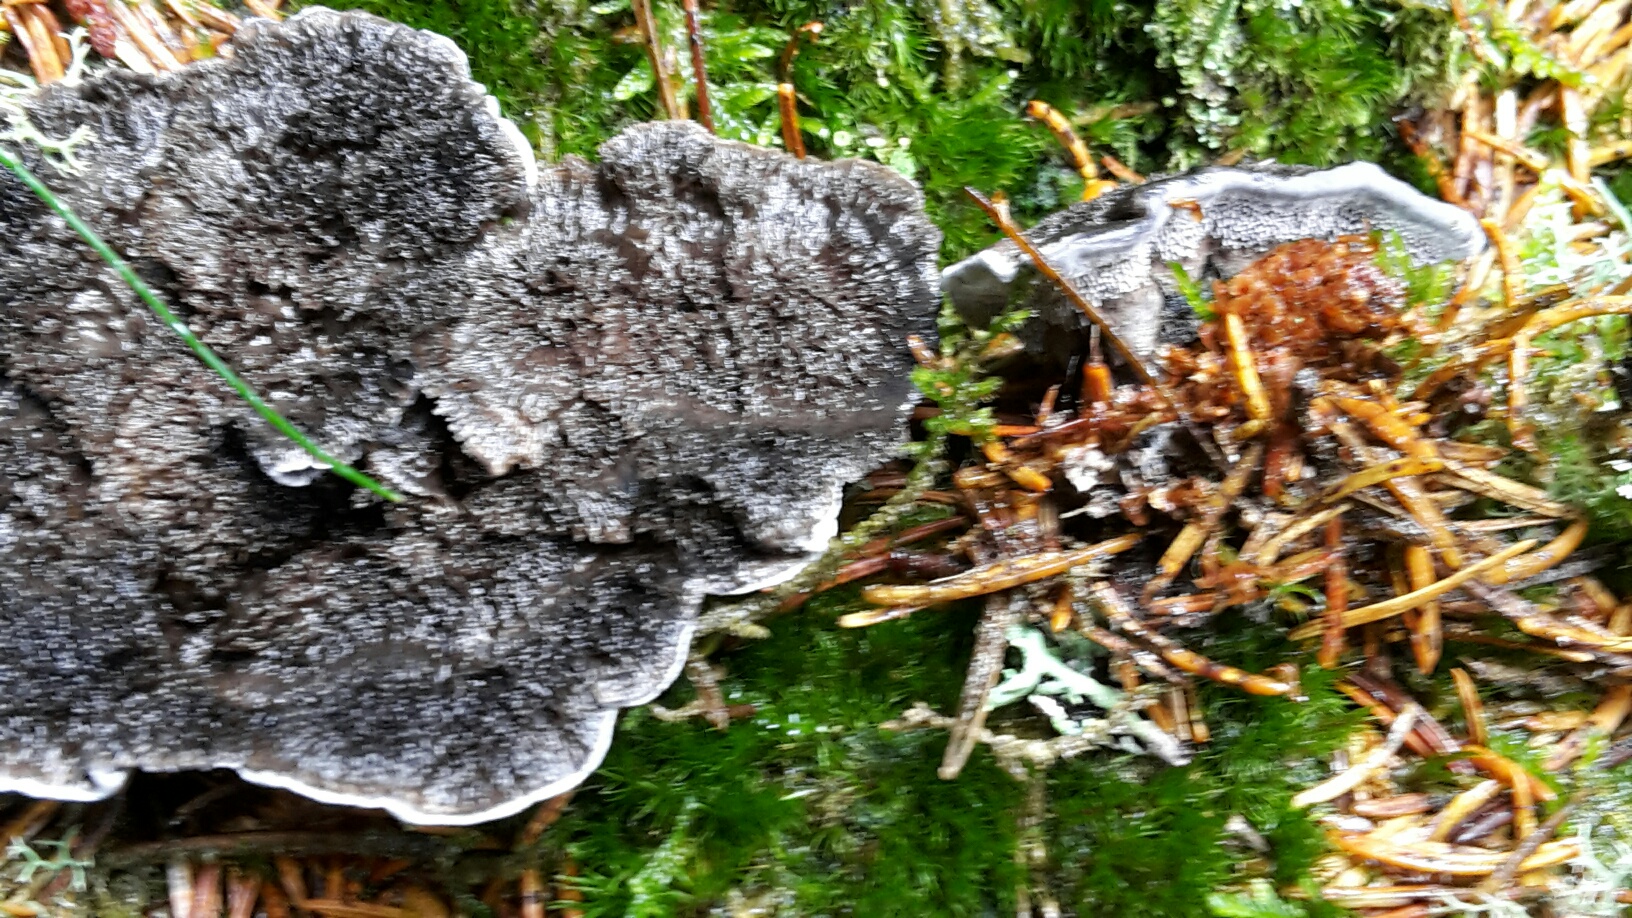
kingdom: Fungi
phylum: Basidiomycota
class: Agaricomycetes
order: Thelephorales
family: Thelephoraceae
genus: Phellodon
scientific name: Phellodon
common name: mørk duftpigsvamp
